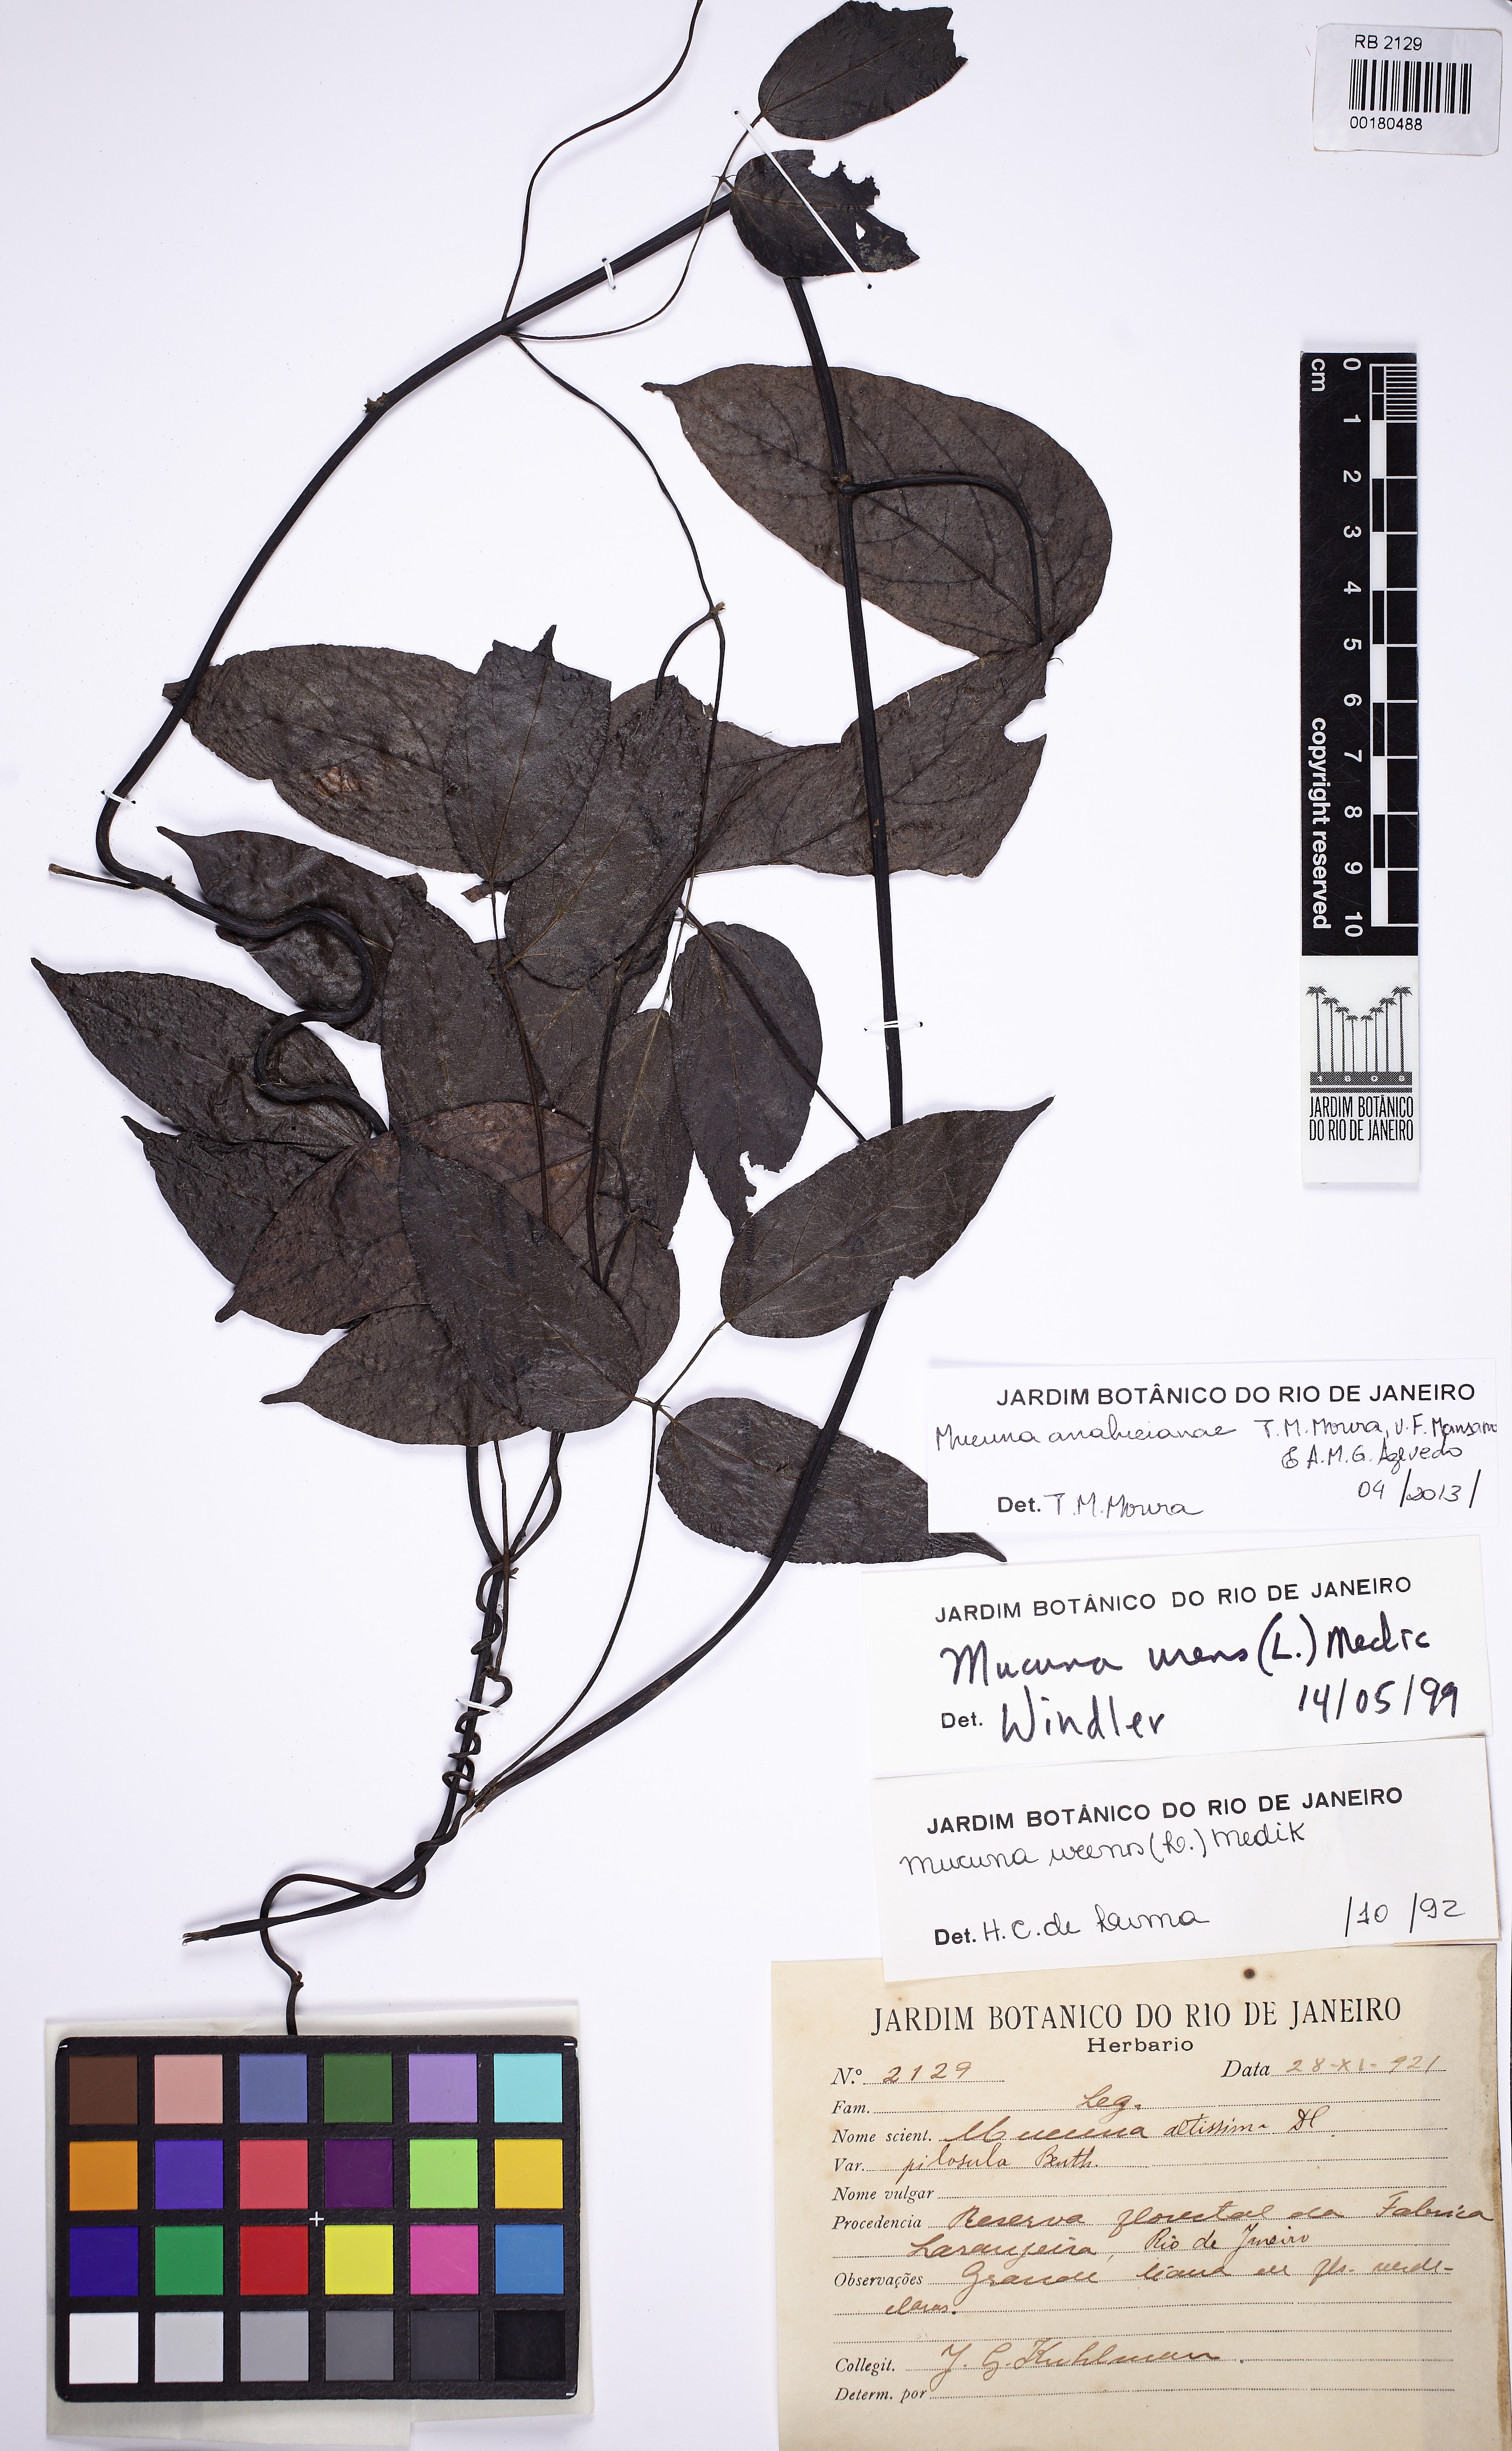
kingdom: Plantae
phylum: Tracheophyta
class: Magnoliopsida
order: Fabales
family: Fabaceae
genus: Mucuna
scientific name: Mucuna analuciana
